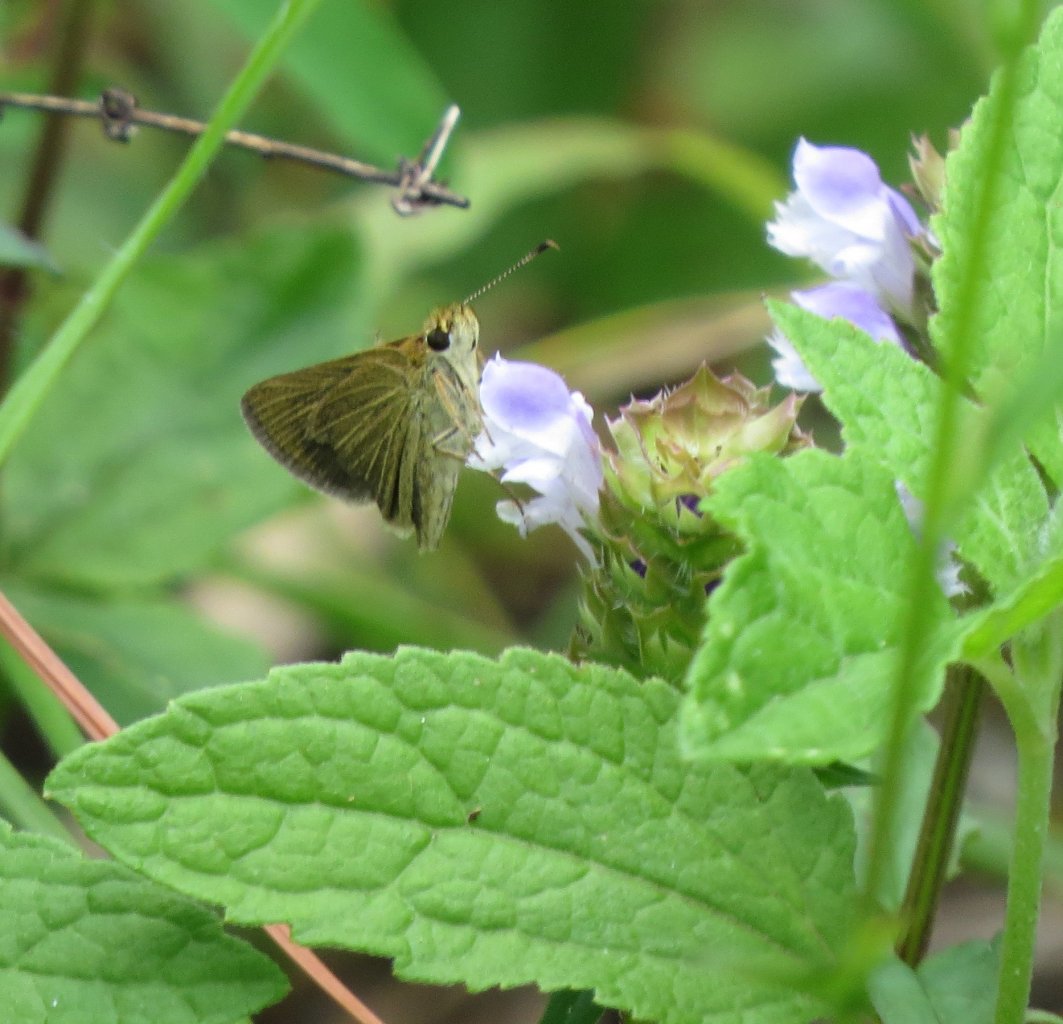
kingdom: Animalia
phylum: Arthropoda
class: Insecta
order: Lepidoptera
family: Hesperiidae
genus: Nastra
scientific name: Nastra lherminier
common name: Swarthy Skipper
